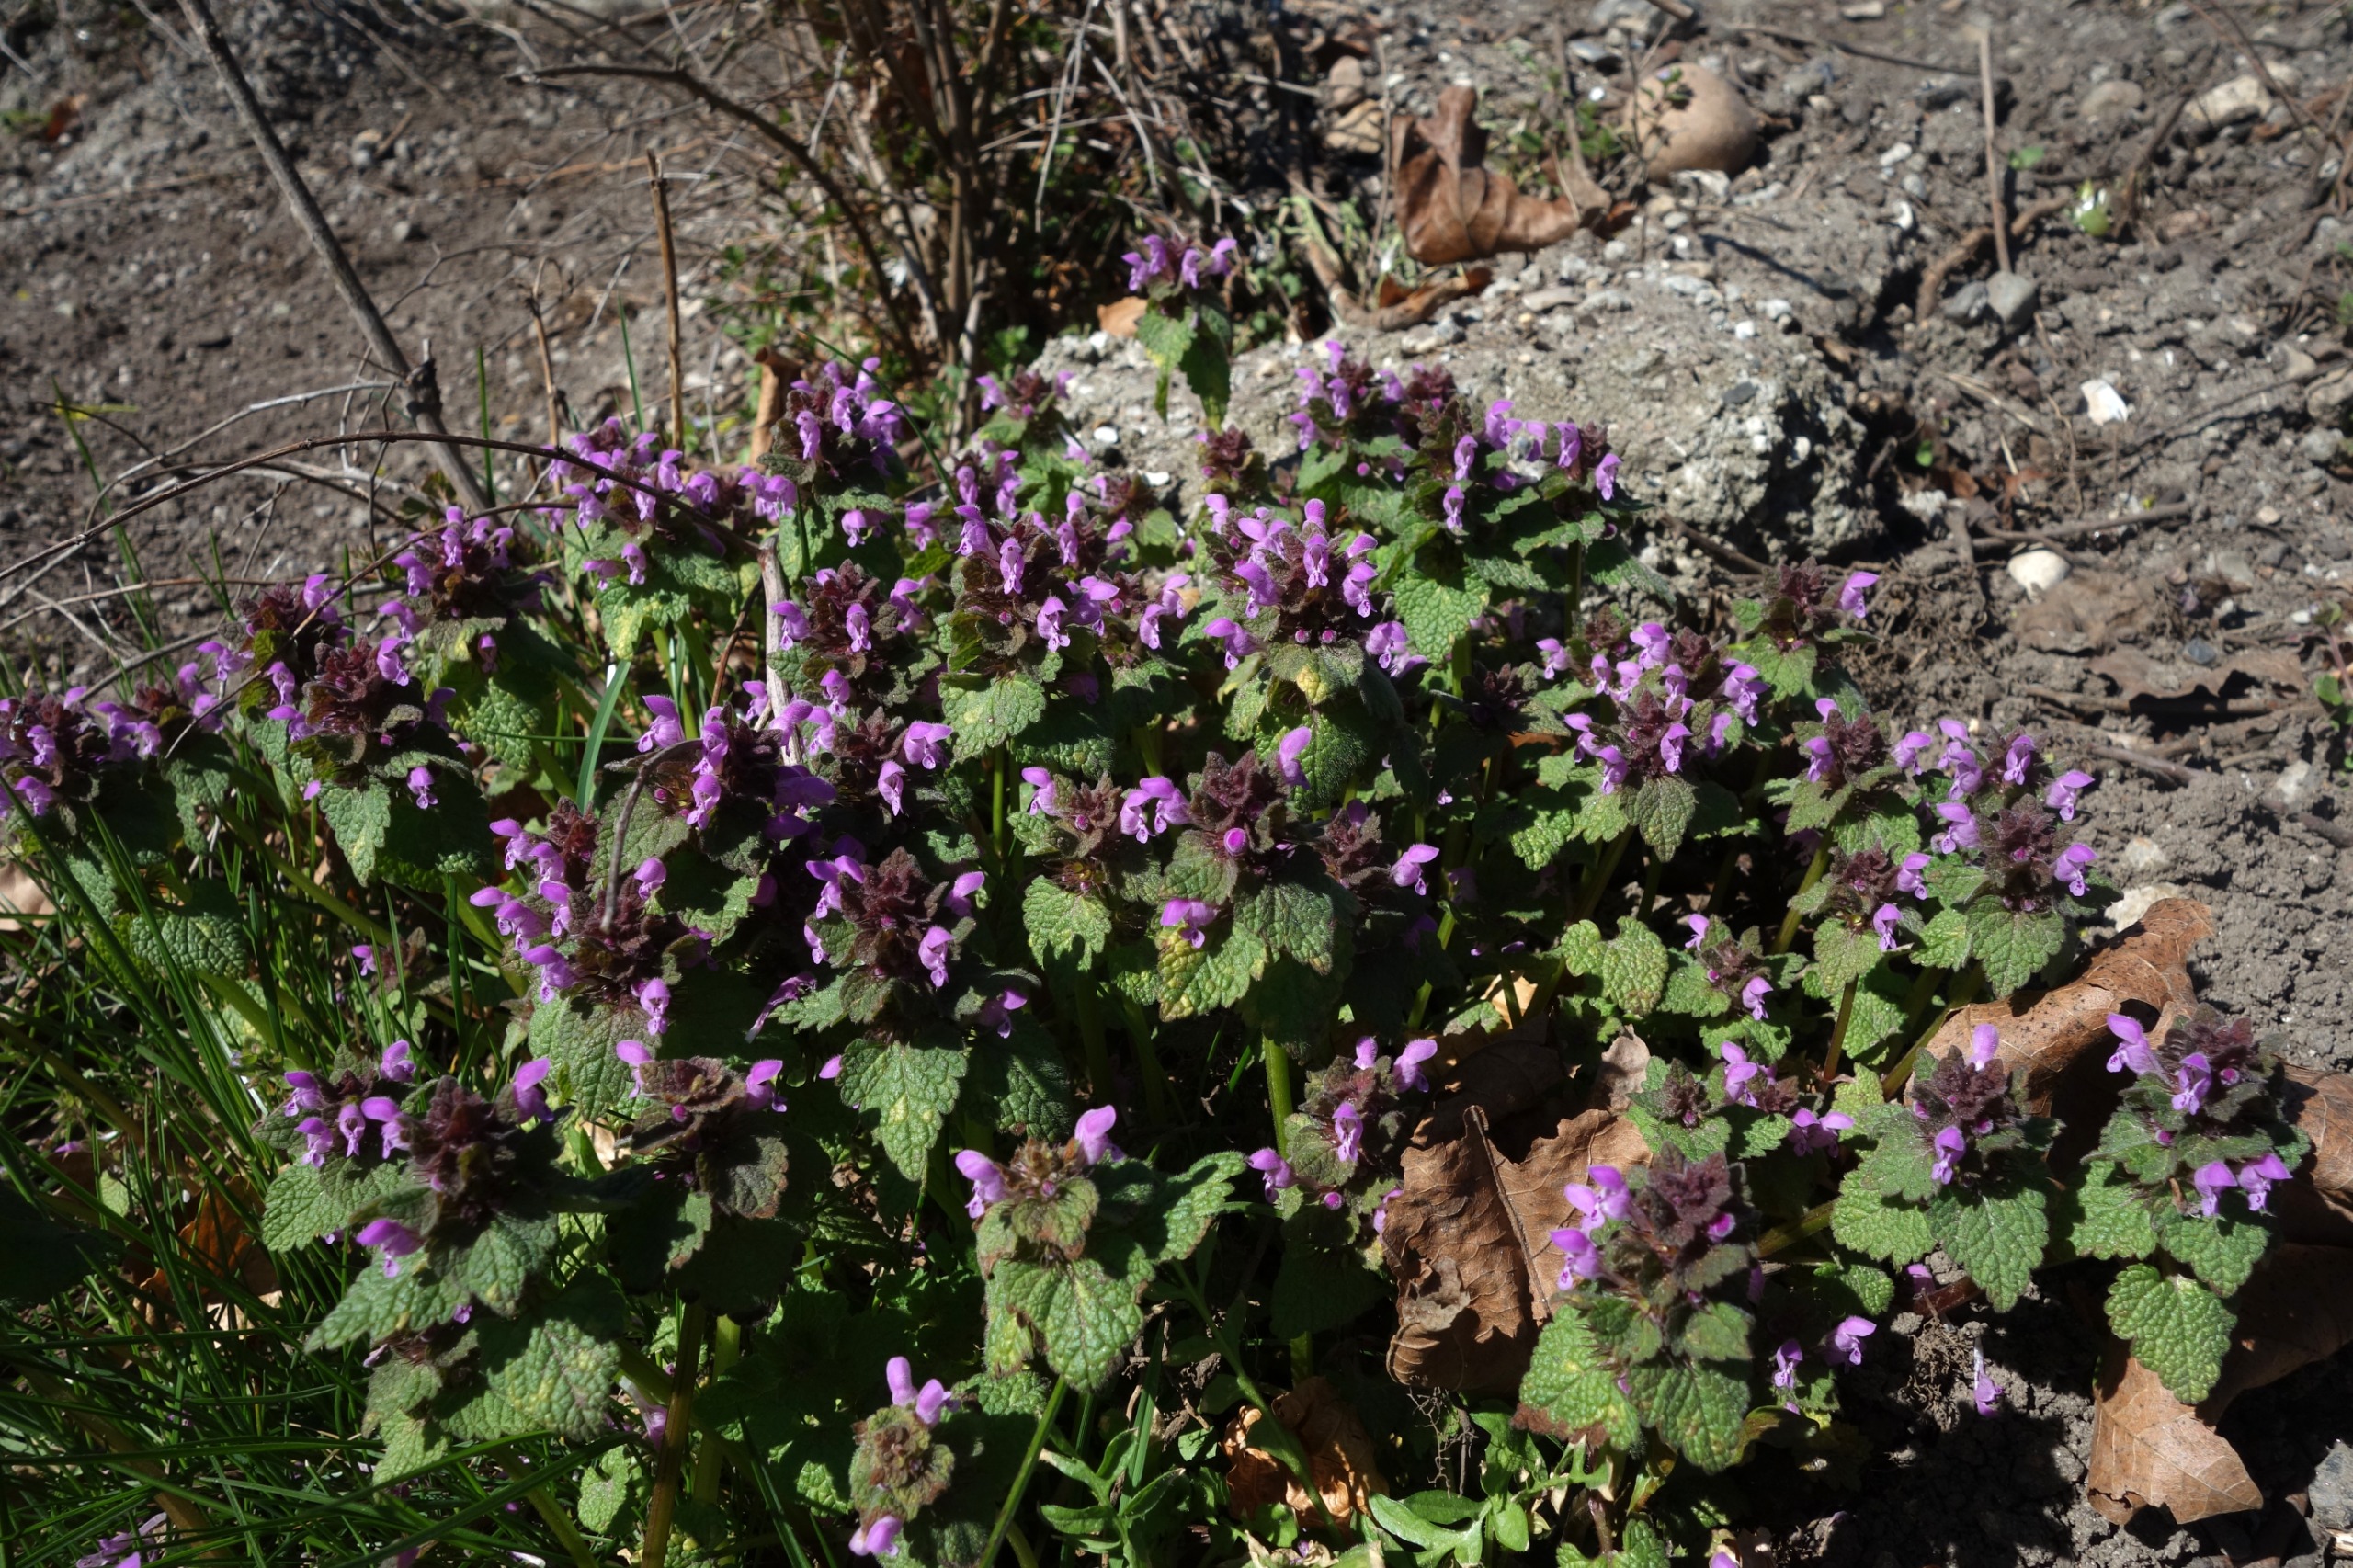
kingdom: Plantae
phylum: Tracheophyta
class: Magnoliopsida
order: Lamiales
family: Lamiaceae
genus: Lamium
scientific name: Lamium purpureum
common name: Rød tvetand
